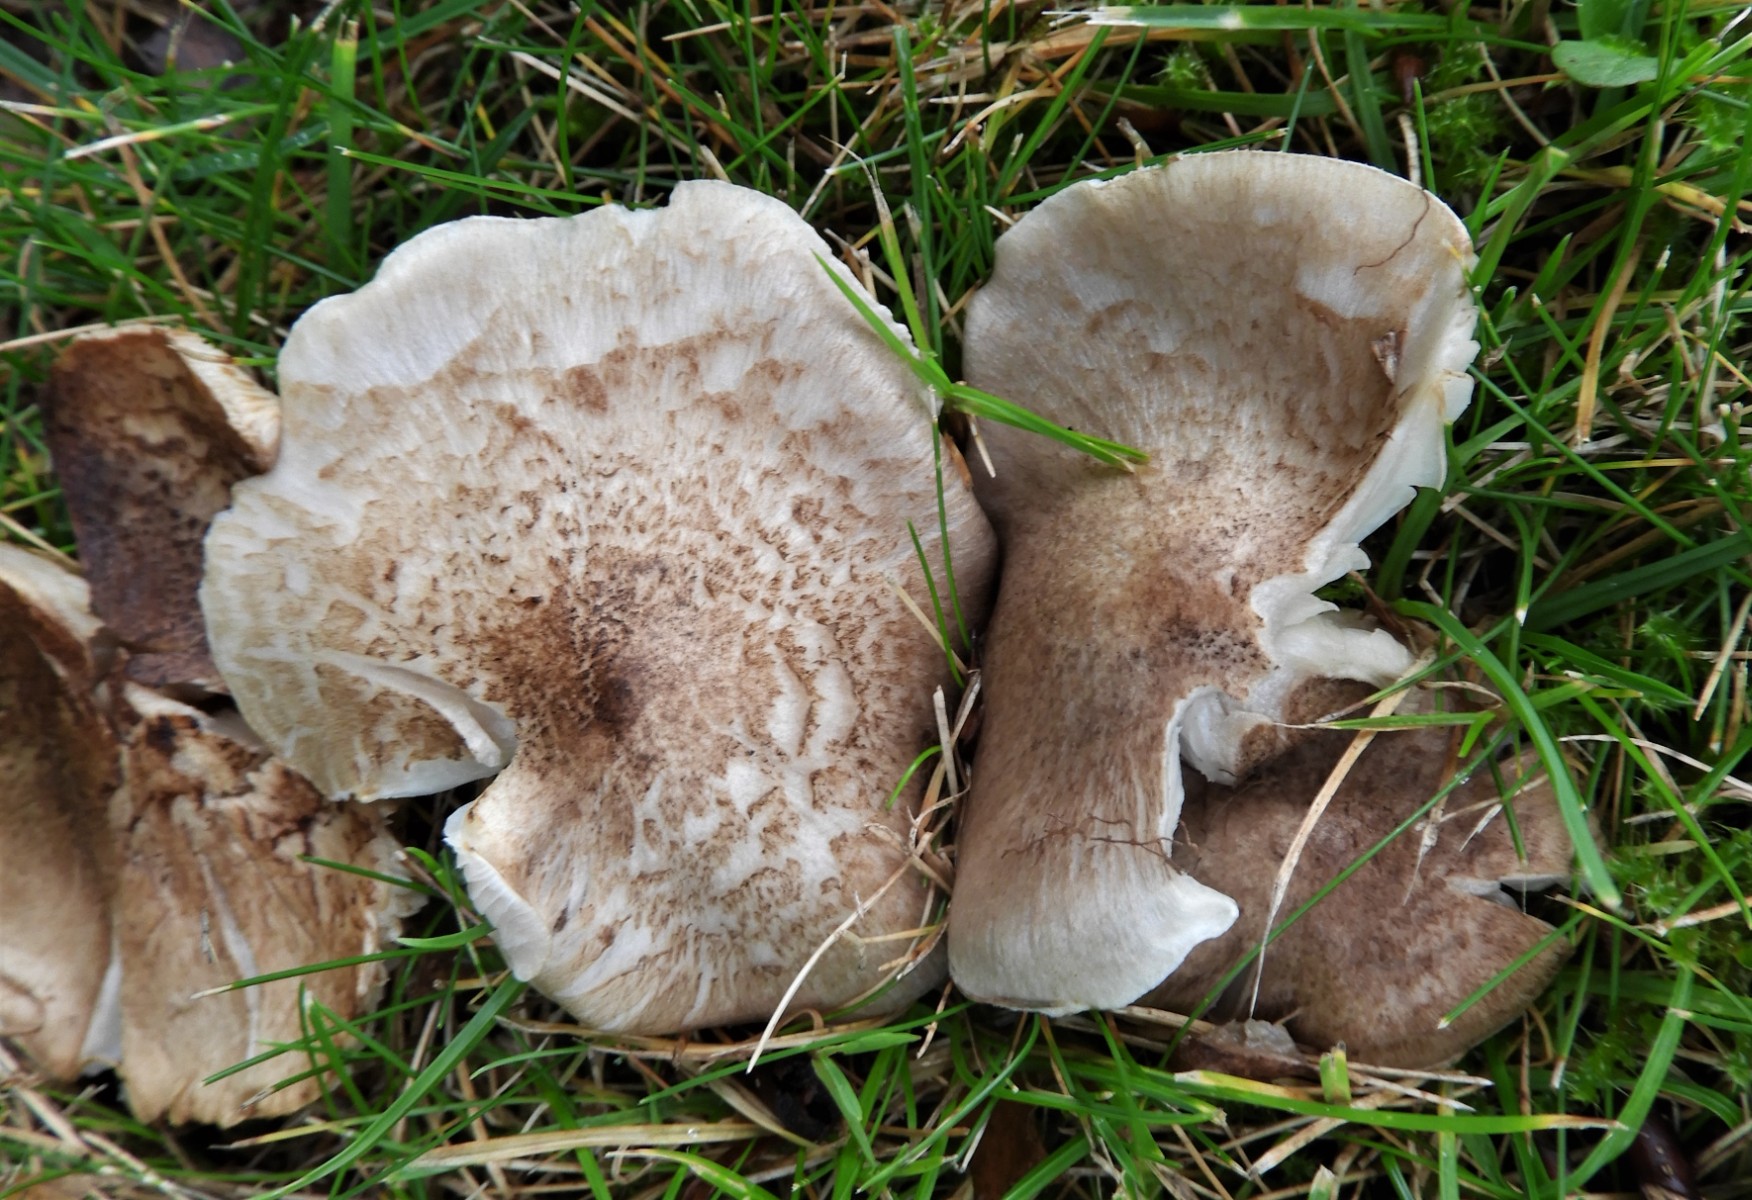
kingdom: Fungi
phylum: Basidiomycota
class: Agaricomycetes
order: Agaricales
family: Tricholomataceae
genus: Tricholoma
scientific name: Tricholoma
